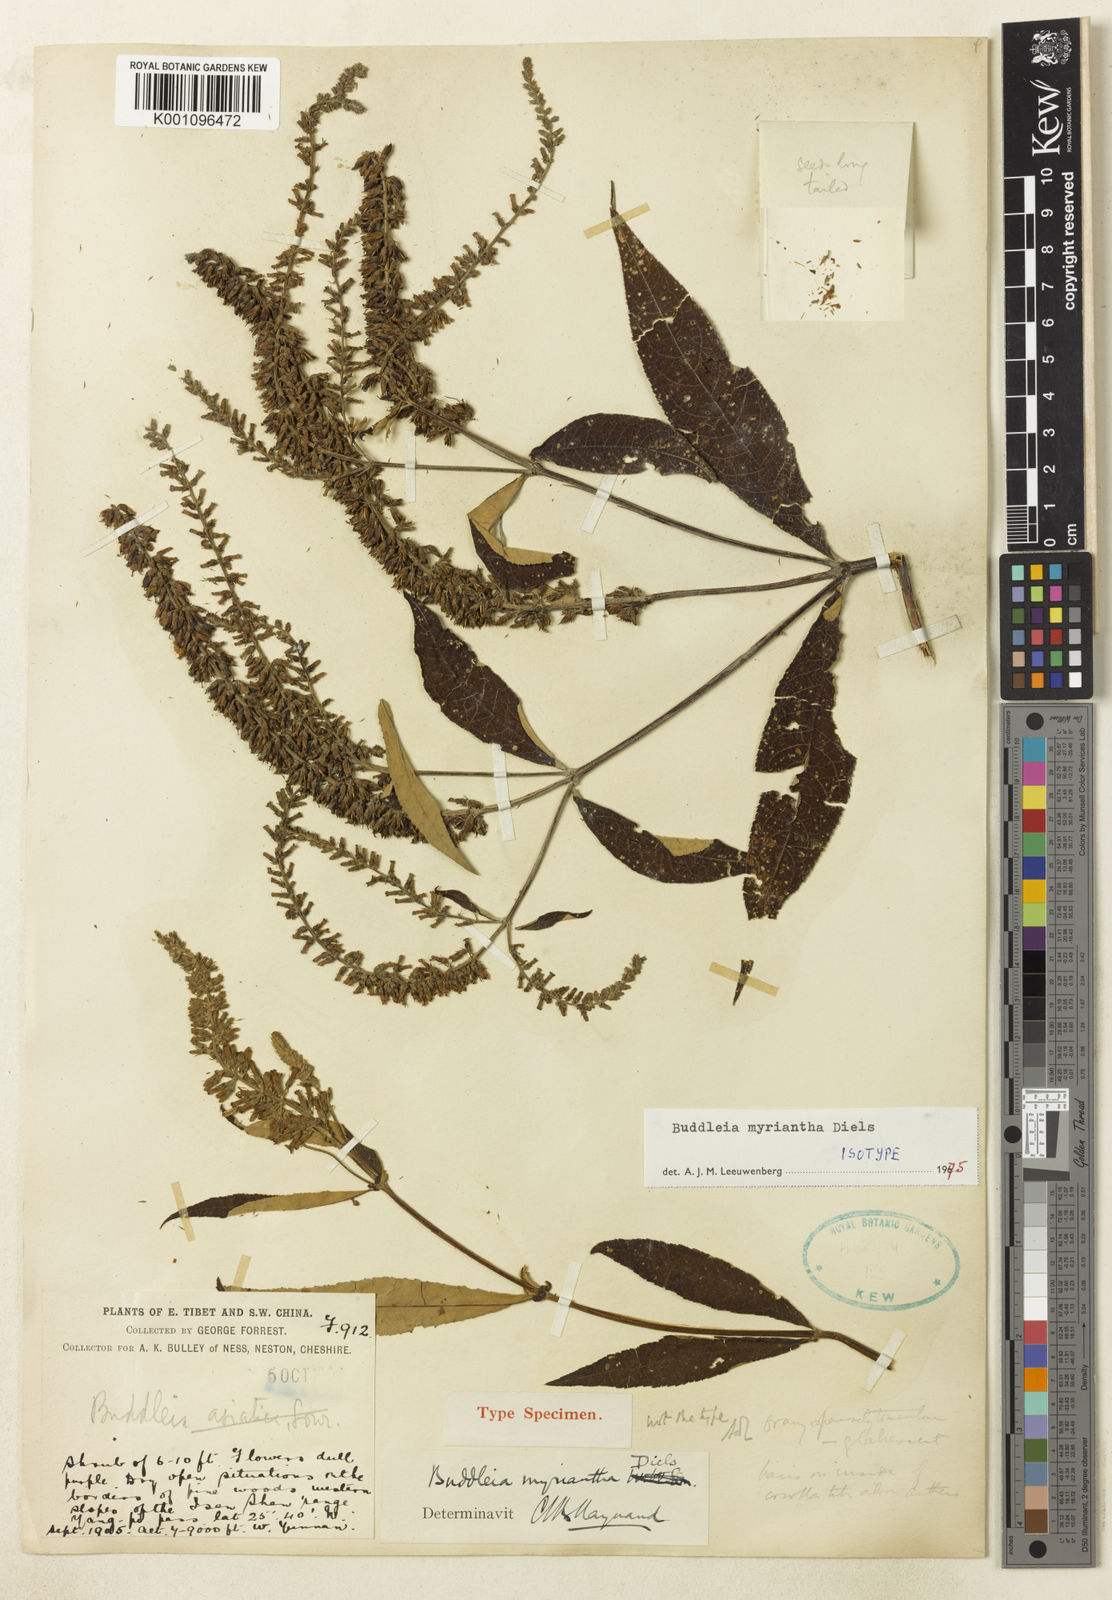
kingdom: Plantae
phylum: Tracheophyta
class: Magnoliopsida
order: Lamiales
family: Scrophulariaceae
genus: Buddleja
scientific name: Buddleja myriantha
